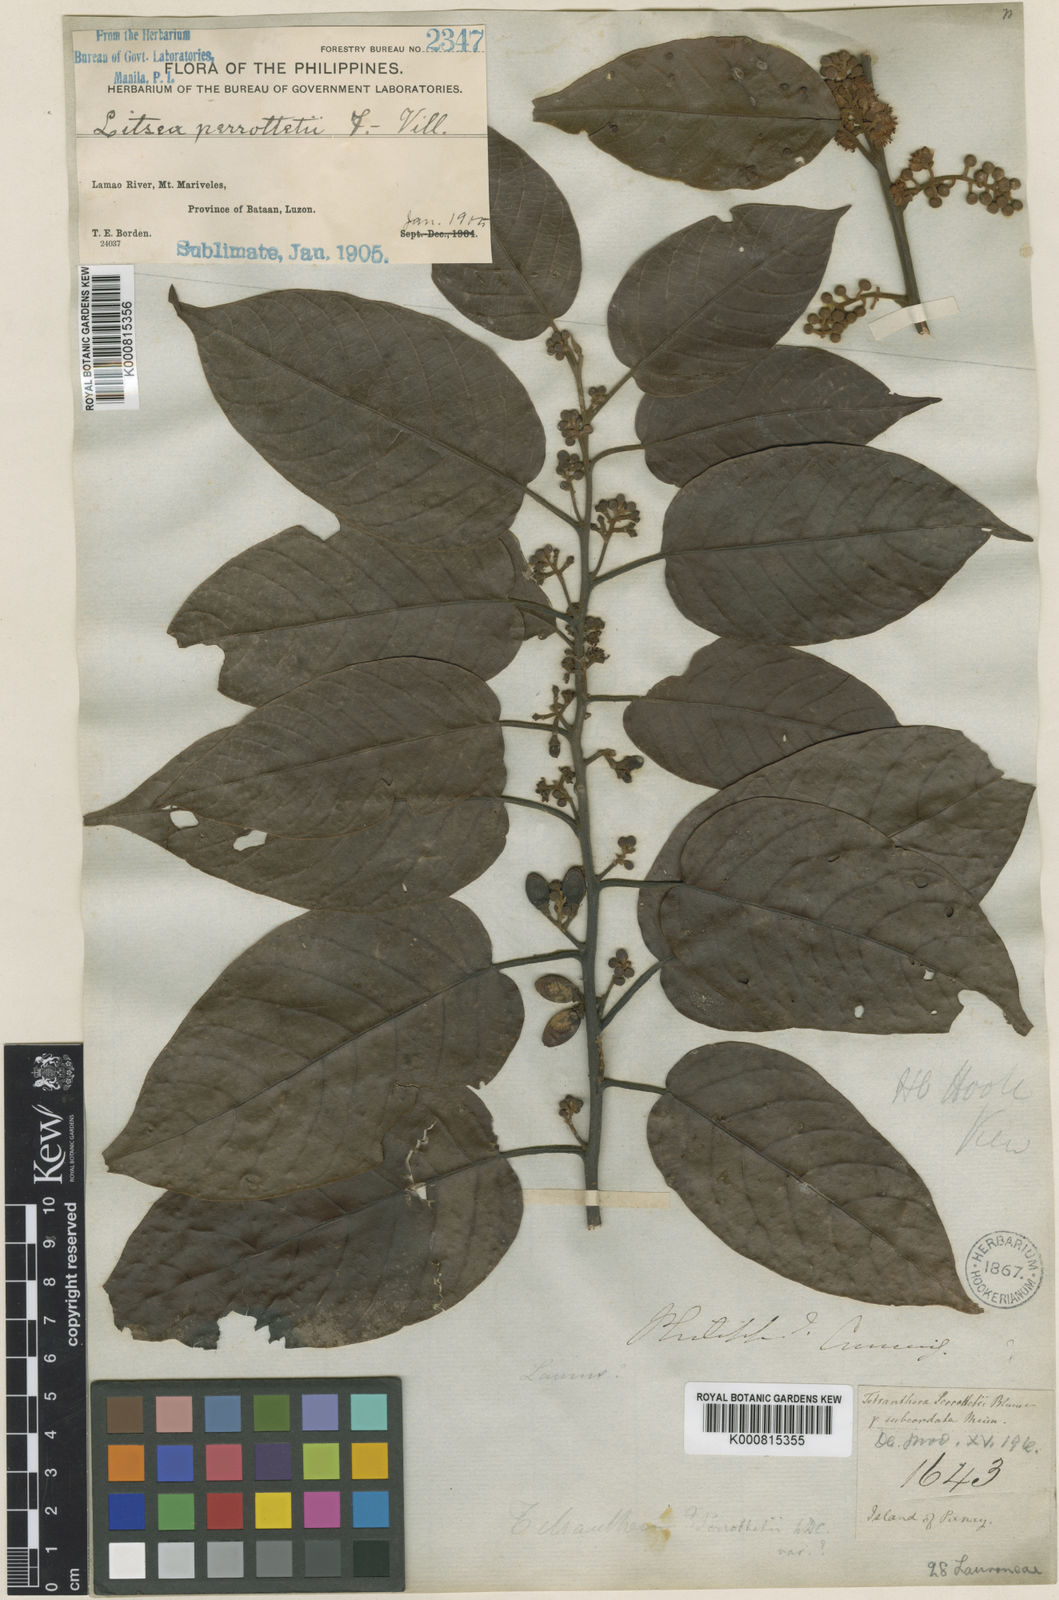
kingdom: Plantae
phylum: Tracheophyta
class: Magnoliopsida
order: Laurales
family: Lauraceae
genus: Litsea
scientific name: Litsea cordata
